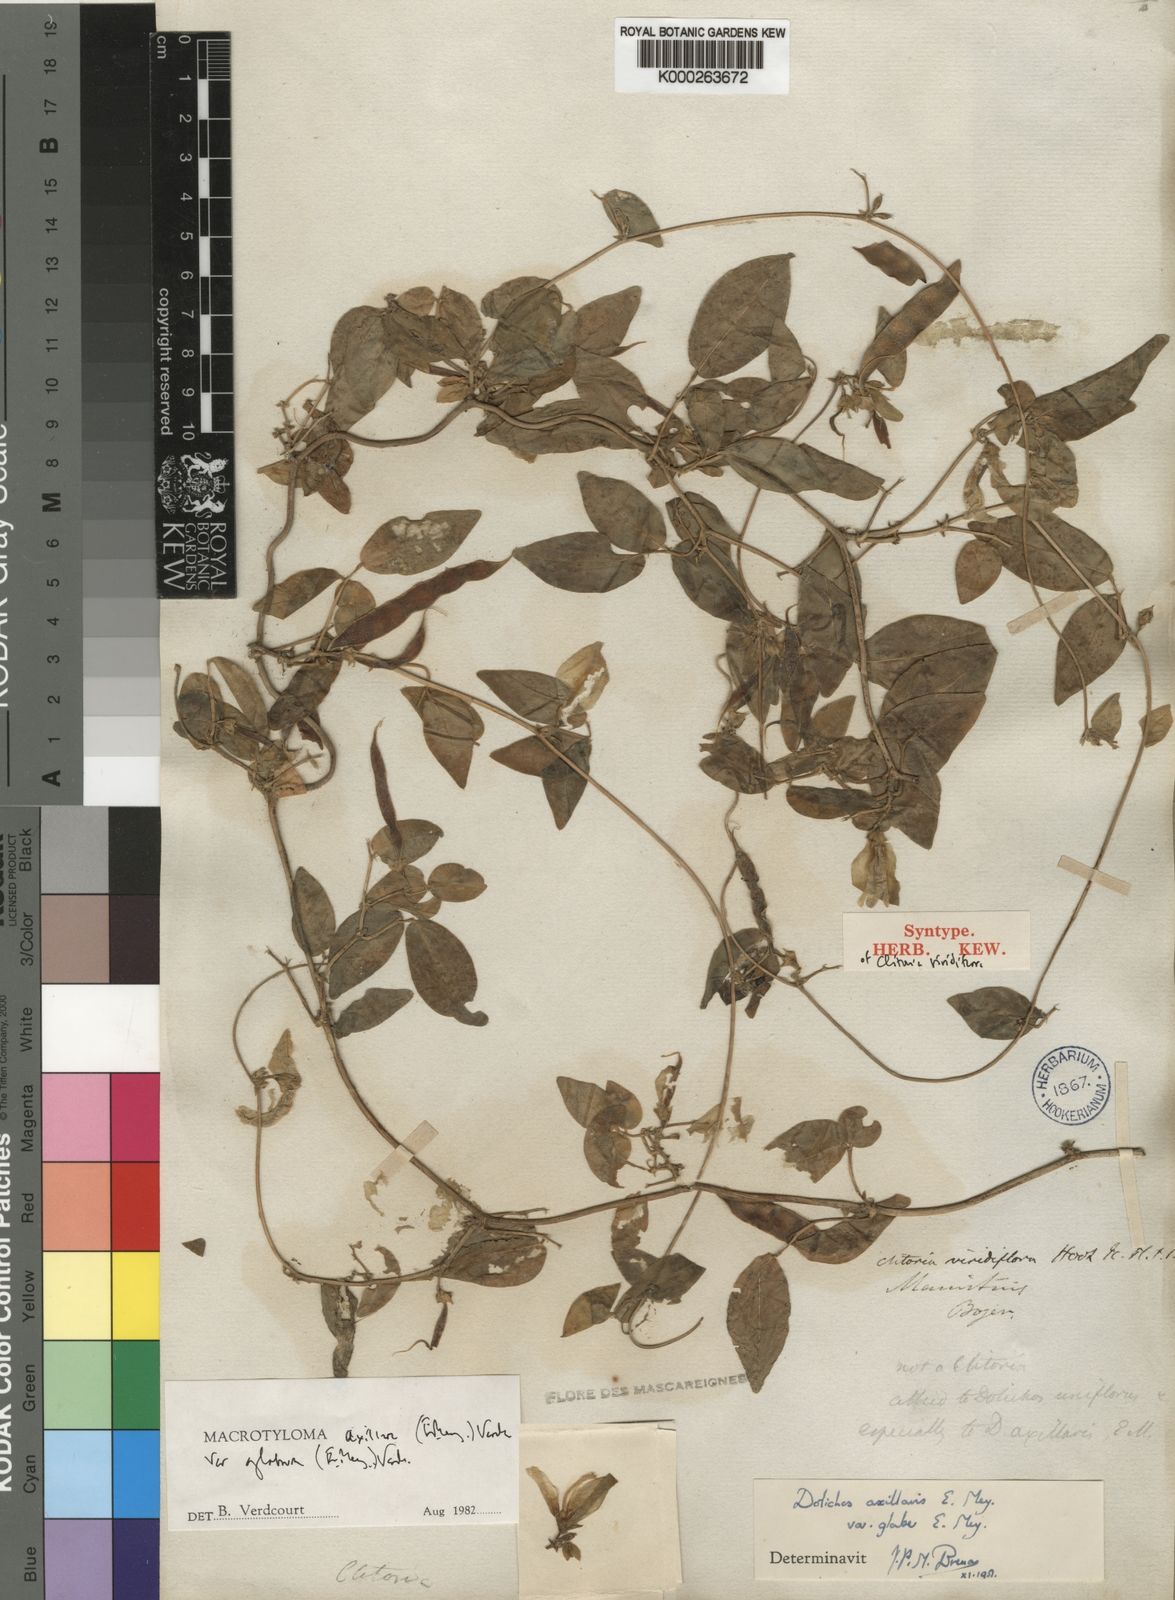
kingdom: Plantae
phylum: Tracheophyta
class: Magnoliopsida
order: Fabales
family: Fabaceae
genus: Macrotyloma
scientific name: Macrotyloma axillare
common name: Perennial horsegram
